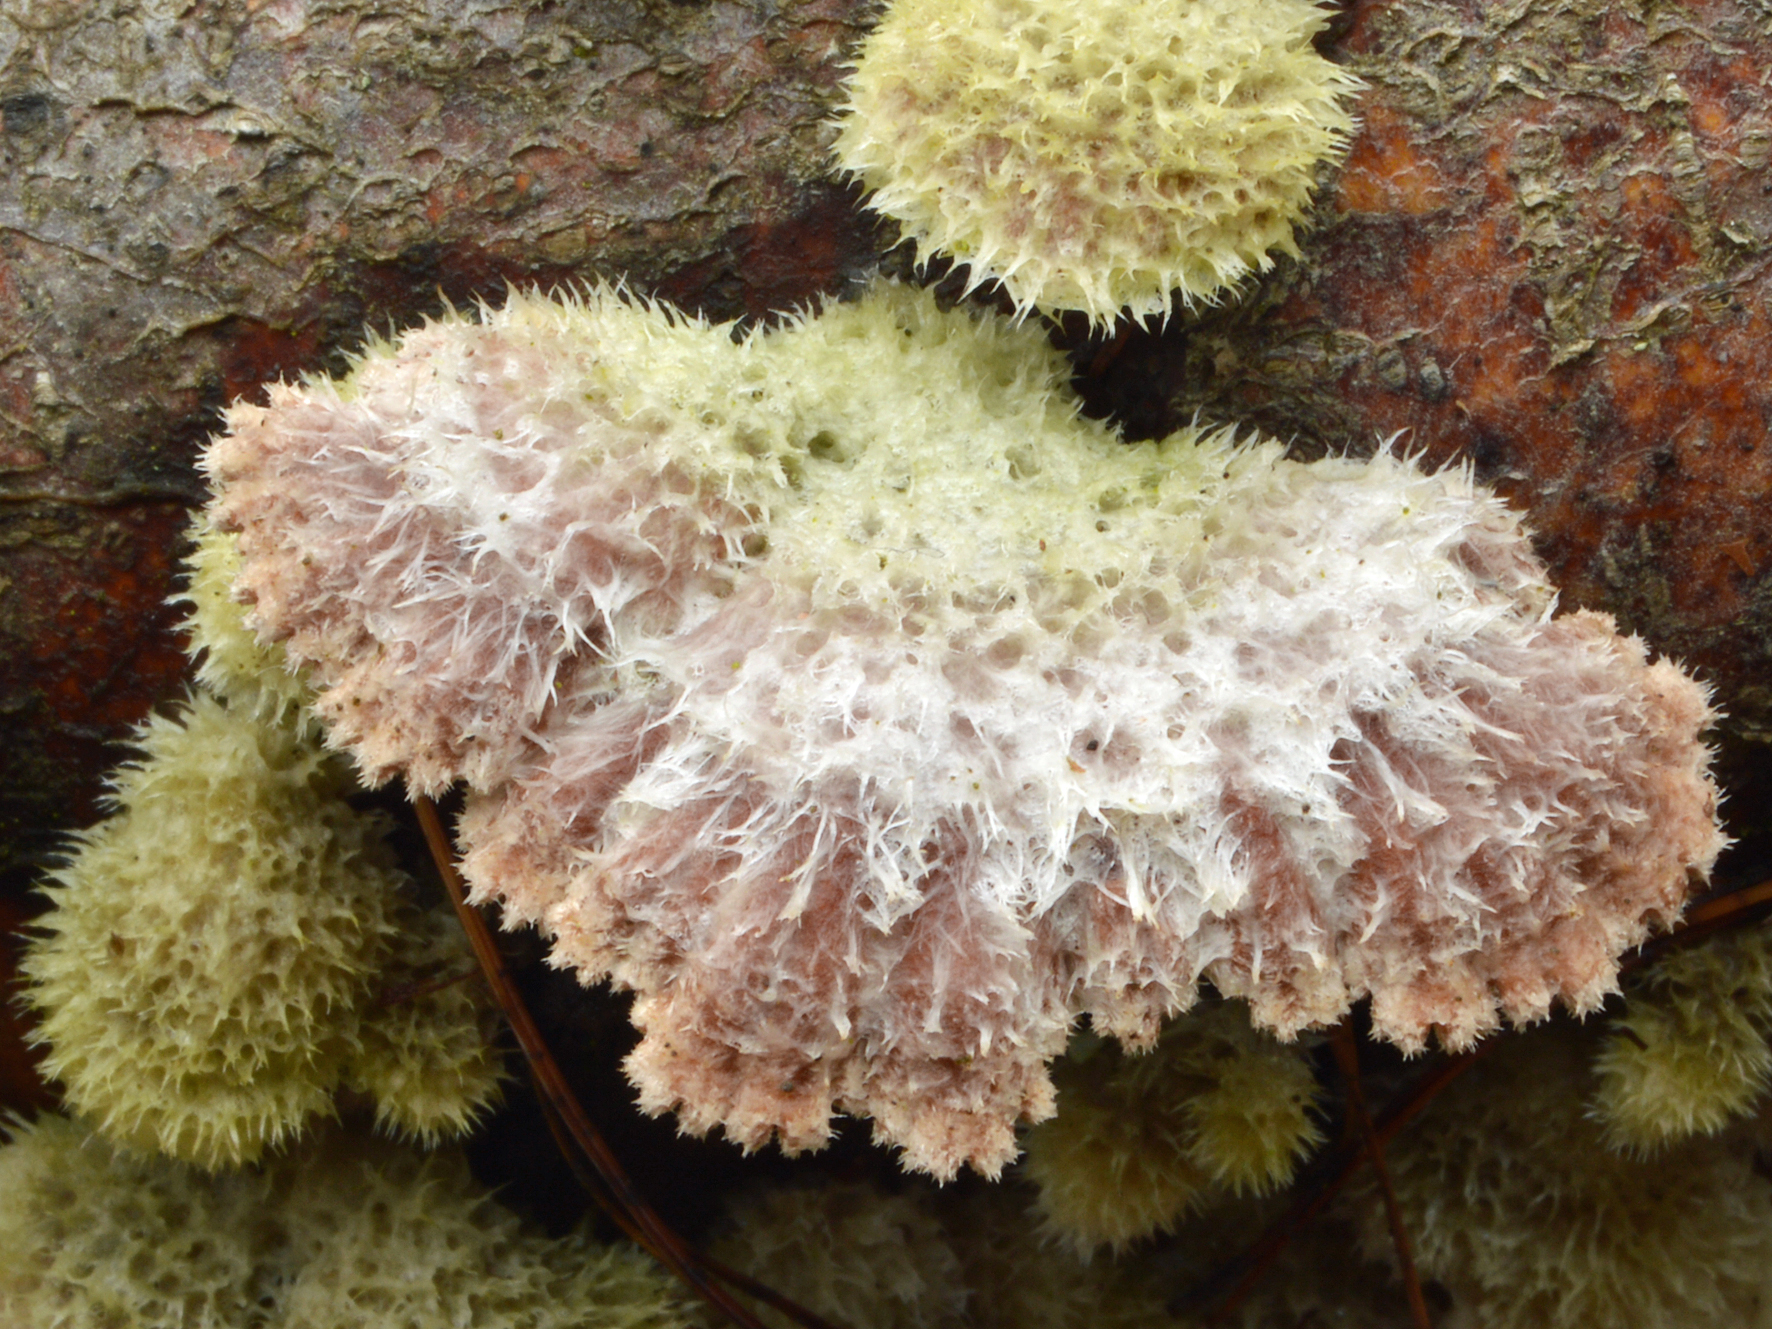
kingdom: Fungi
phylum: Basidiomycota
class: Agaricomycetes
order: Agaricales
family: Schizophyllaceae
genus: Schizophyllum
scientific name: Schizophyllum commune
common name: Common porecrust
